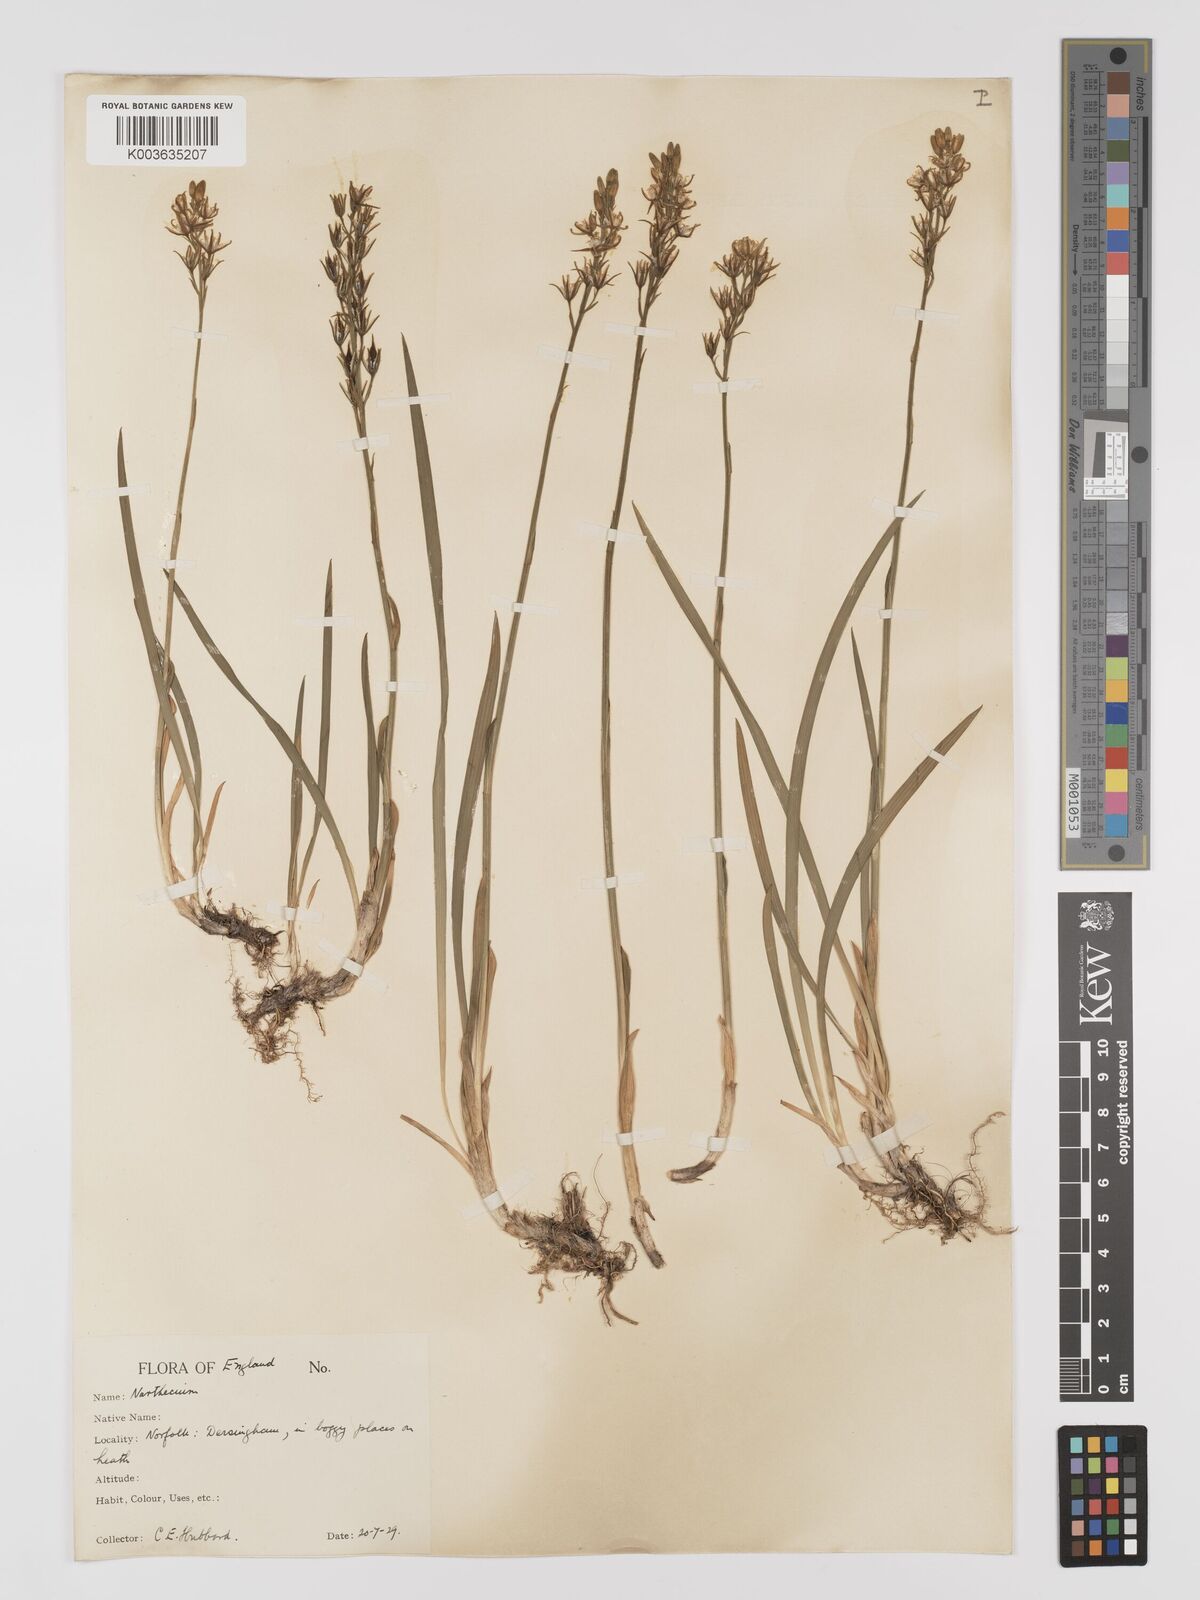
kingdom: Plantae
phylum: Tracheophyta
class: Liliopsida
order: Dioscoreales
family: Nartheciaceae
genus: Narthecium
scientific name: Narthecium
